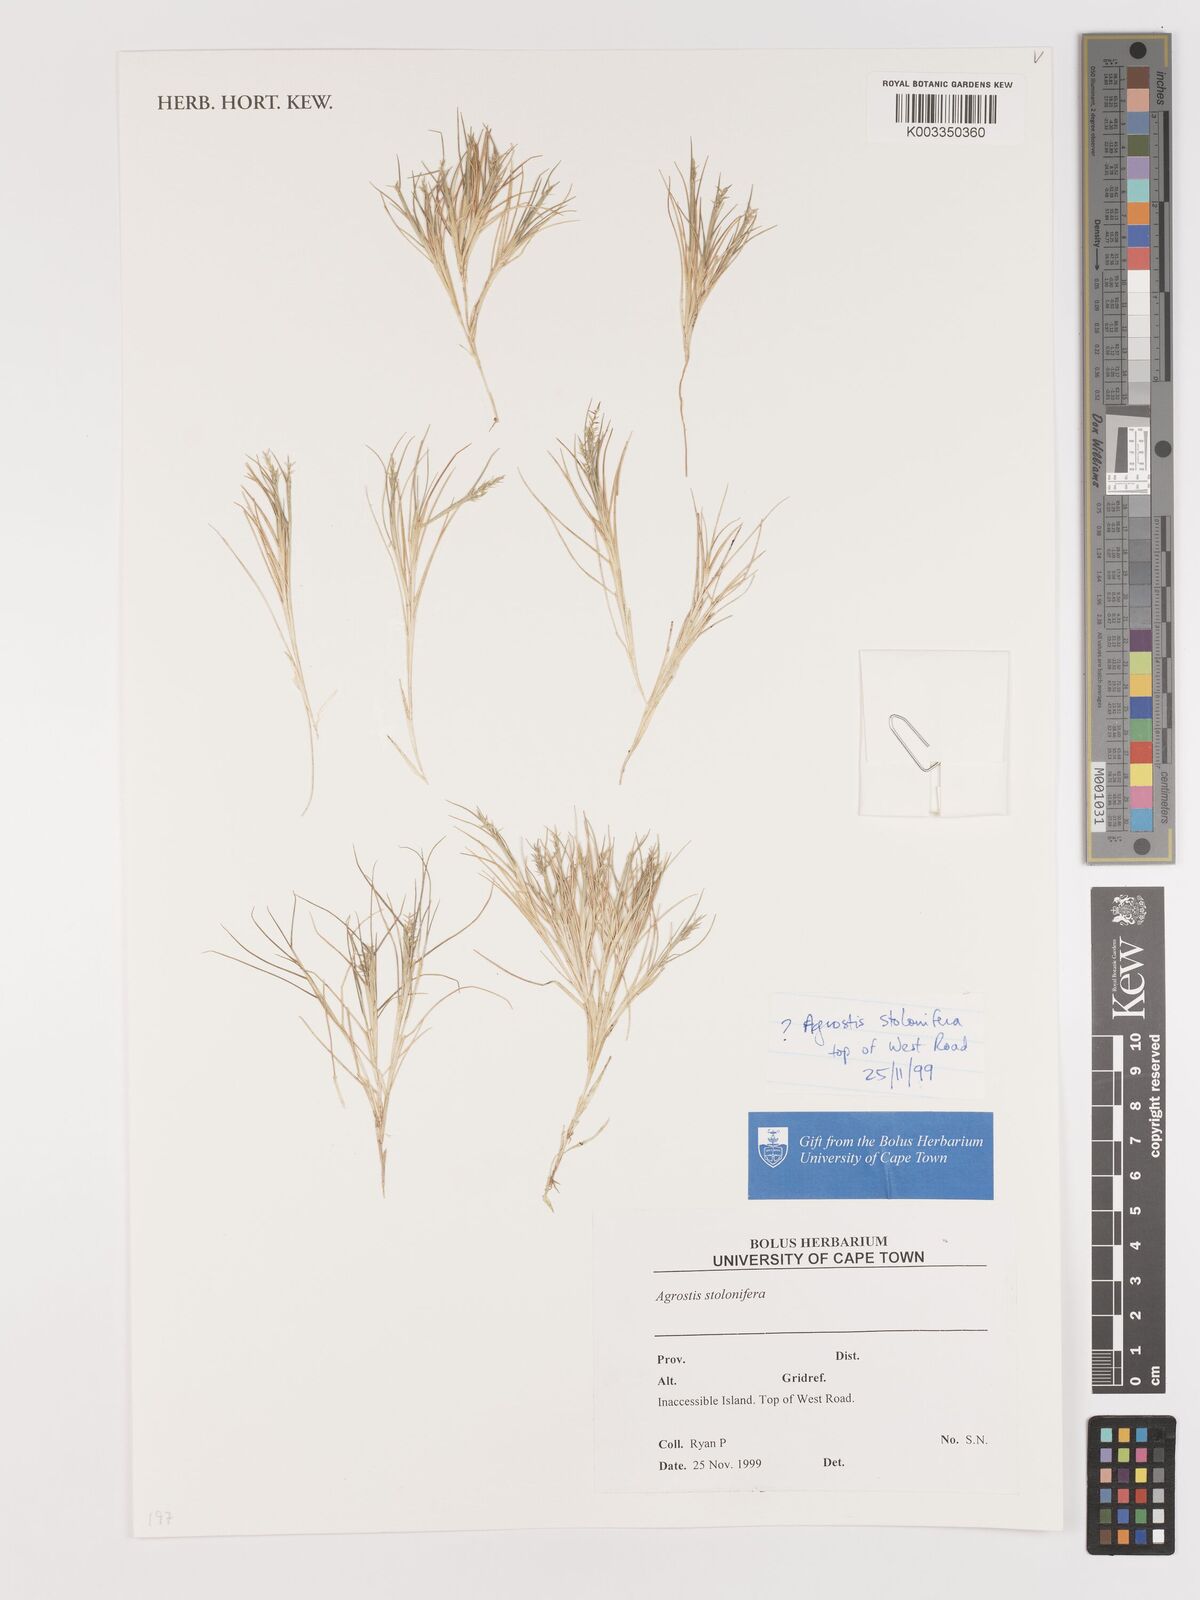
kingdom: Plantae
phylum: Tracheophyta
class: Liliopsida
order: Poales
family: Poaceae
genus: Agrostis
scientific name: Agrostis stolonifera
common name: Creeping bentgrass
